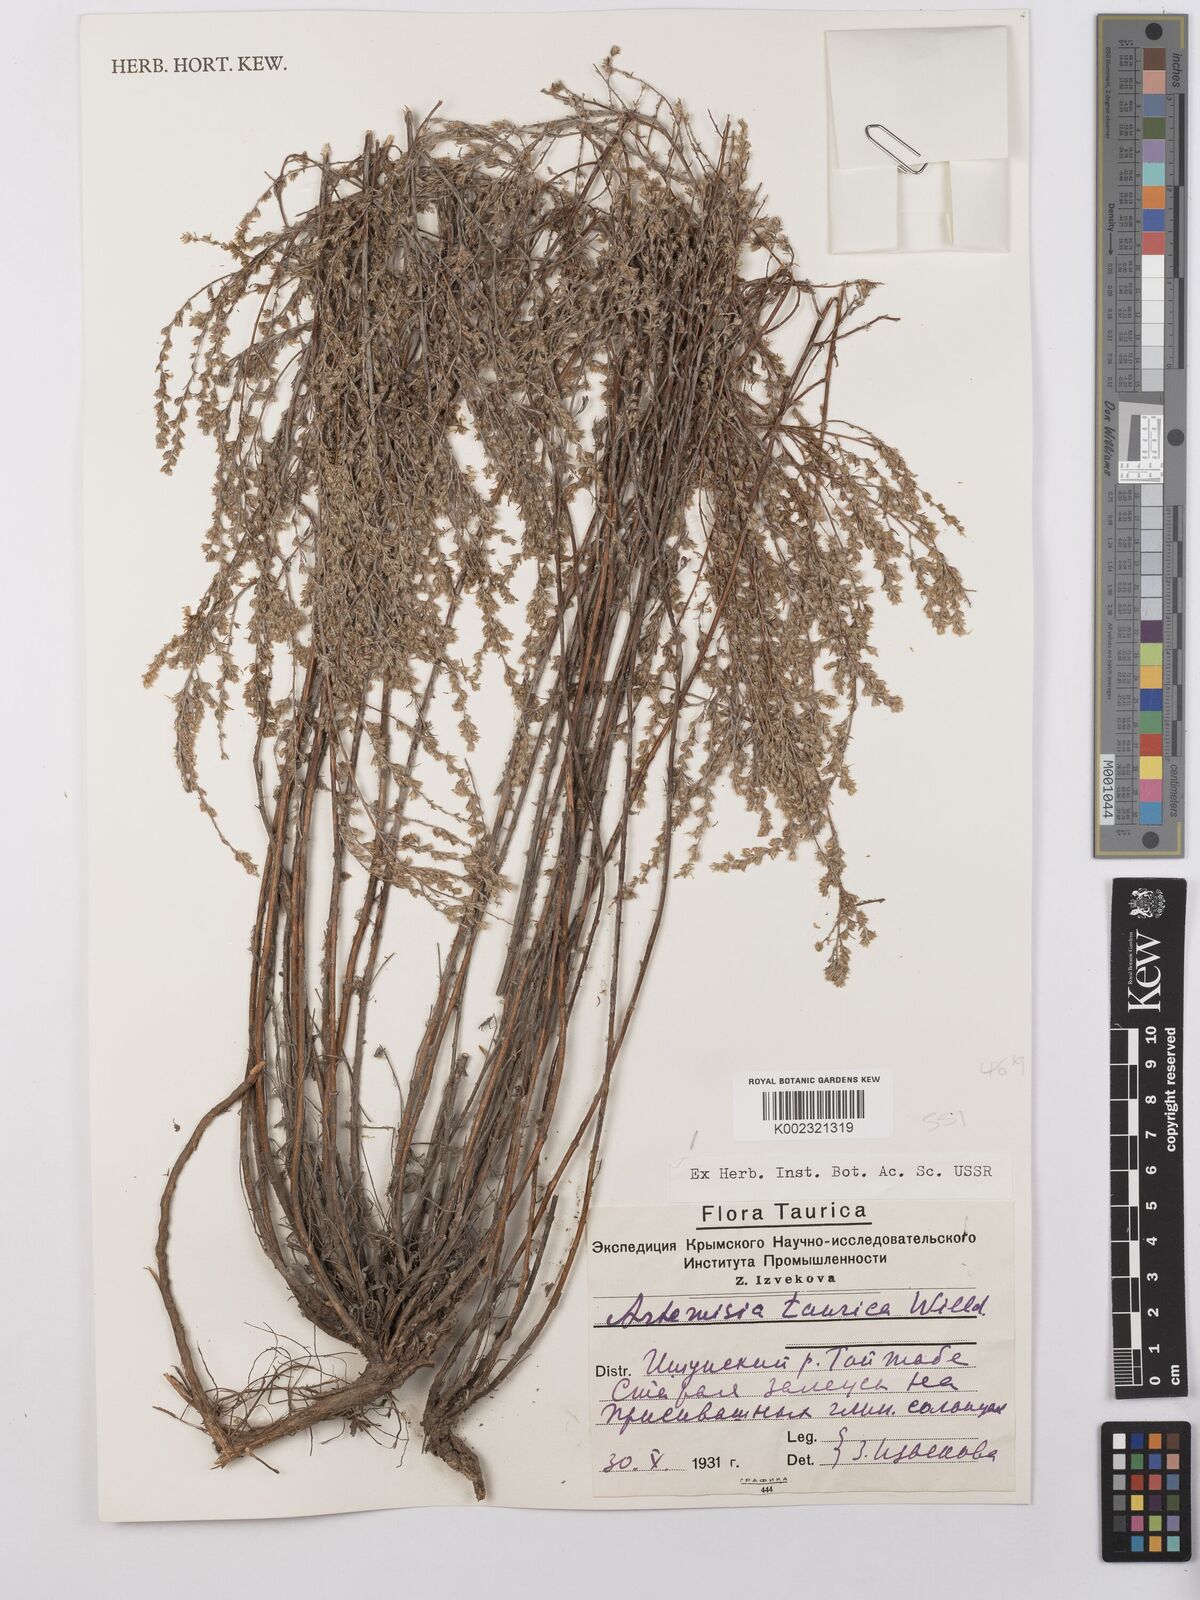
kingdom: Plantae
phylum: Tracheophyta
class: Magnoliopsida
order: Asterales
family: Asteraceae
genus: Artemisia
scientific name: Artemisia taurica
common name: Tauric wormwood
